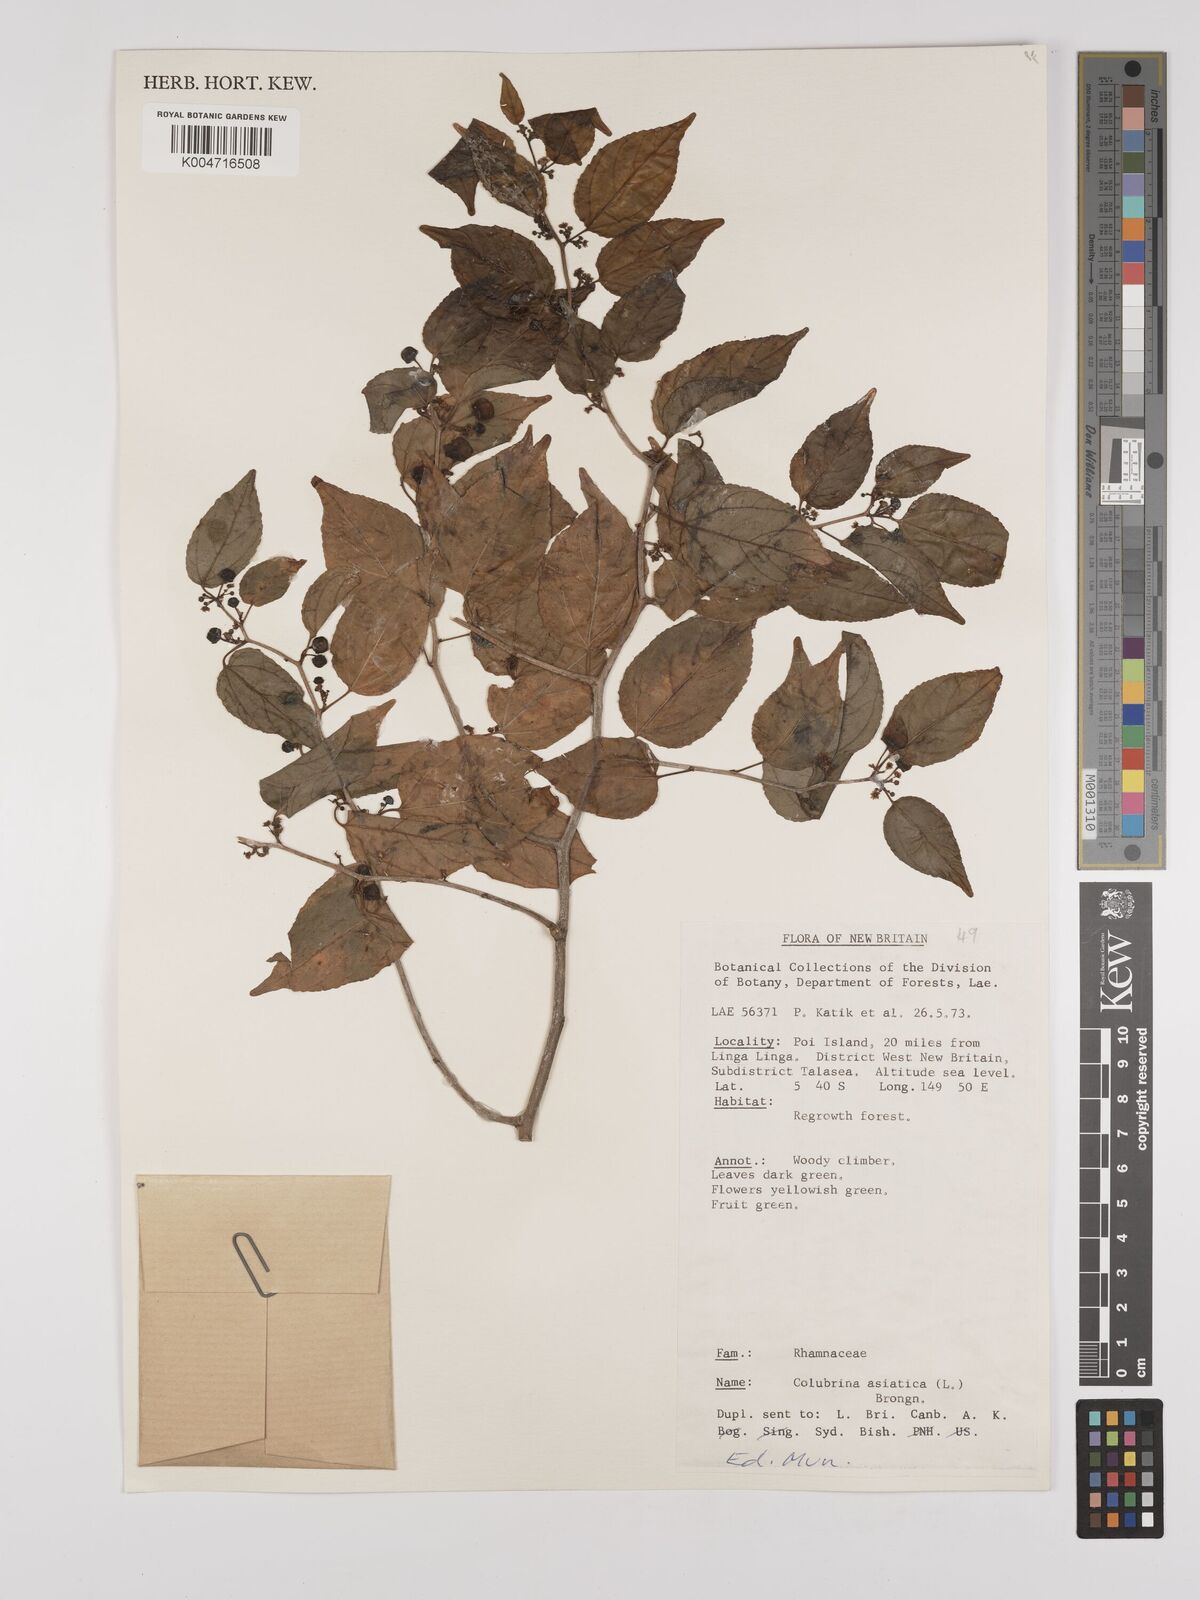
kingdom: Plantae
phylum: Tracheophyta
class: Magnoliopsida
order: Rosales
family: Rhamnaceae
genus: Colubrina
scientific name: Colubrina asiatica
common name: Asian nakedwood
